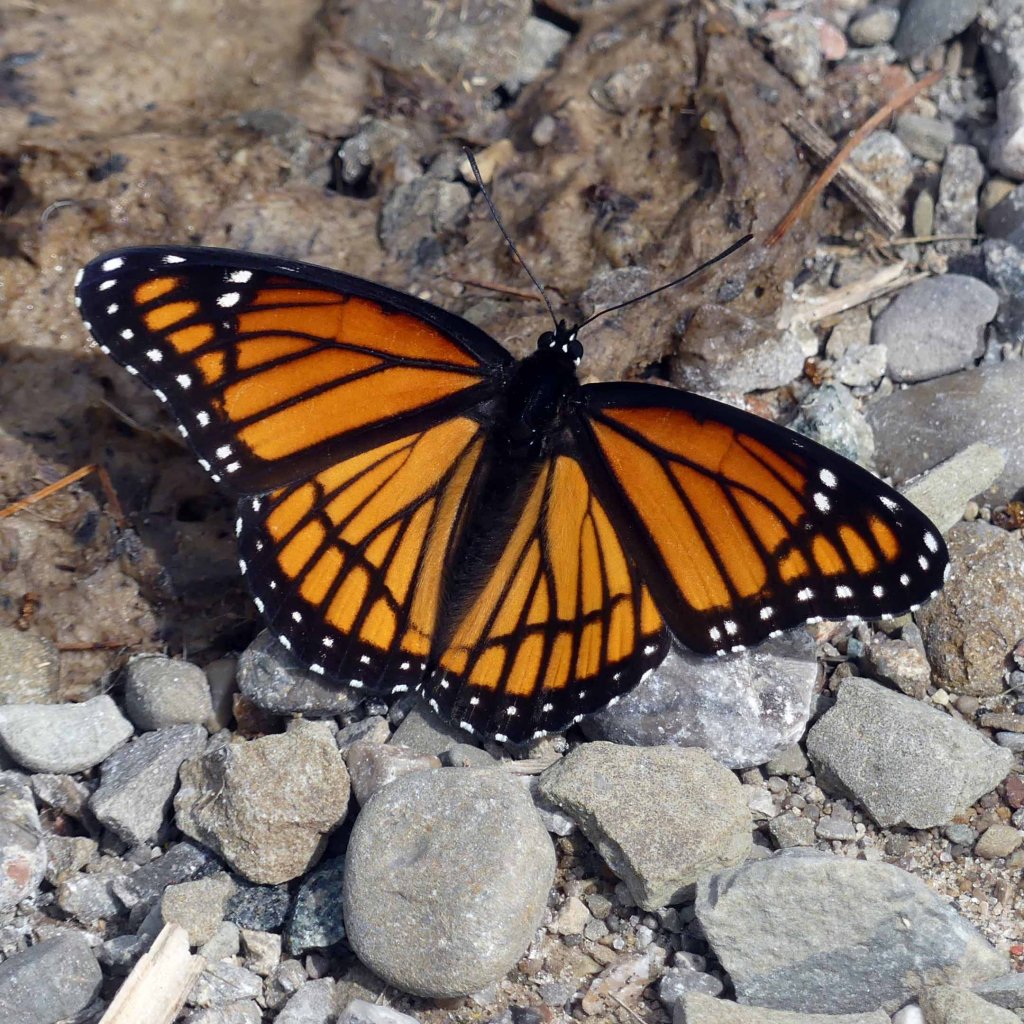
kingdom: Animalia
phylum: Arthropoda
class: Insecta
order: Lepidoptera
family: Nymphalidae
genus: Limenitis
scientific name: Limenitis archippus
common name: Viceroy
